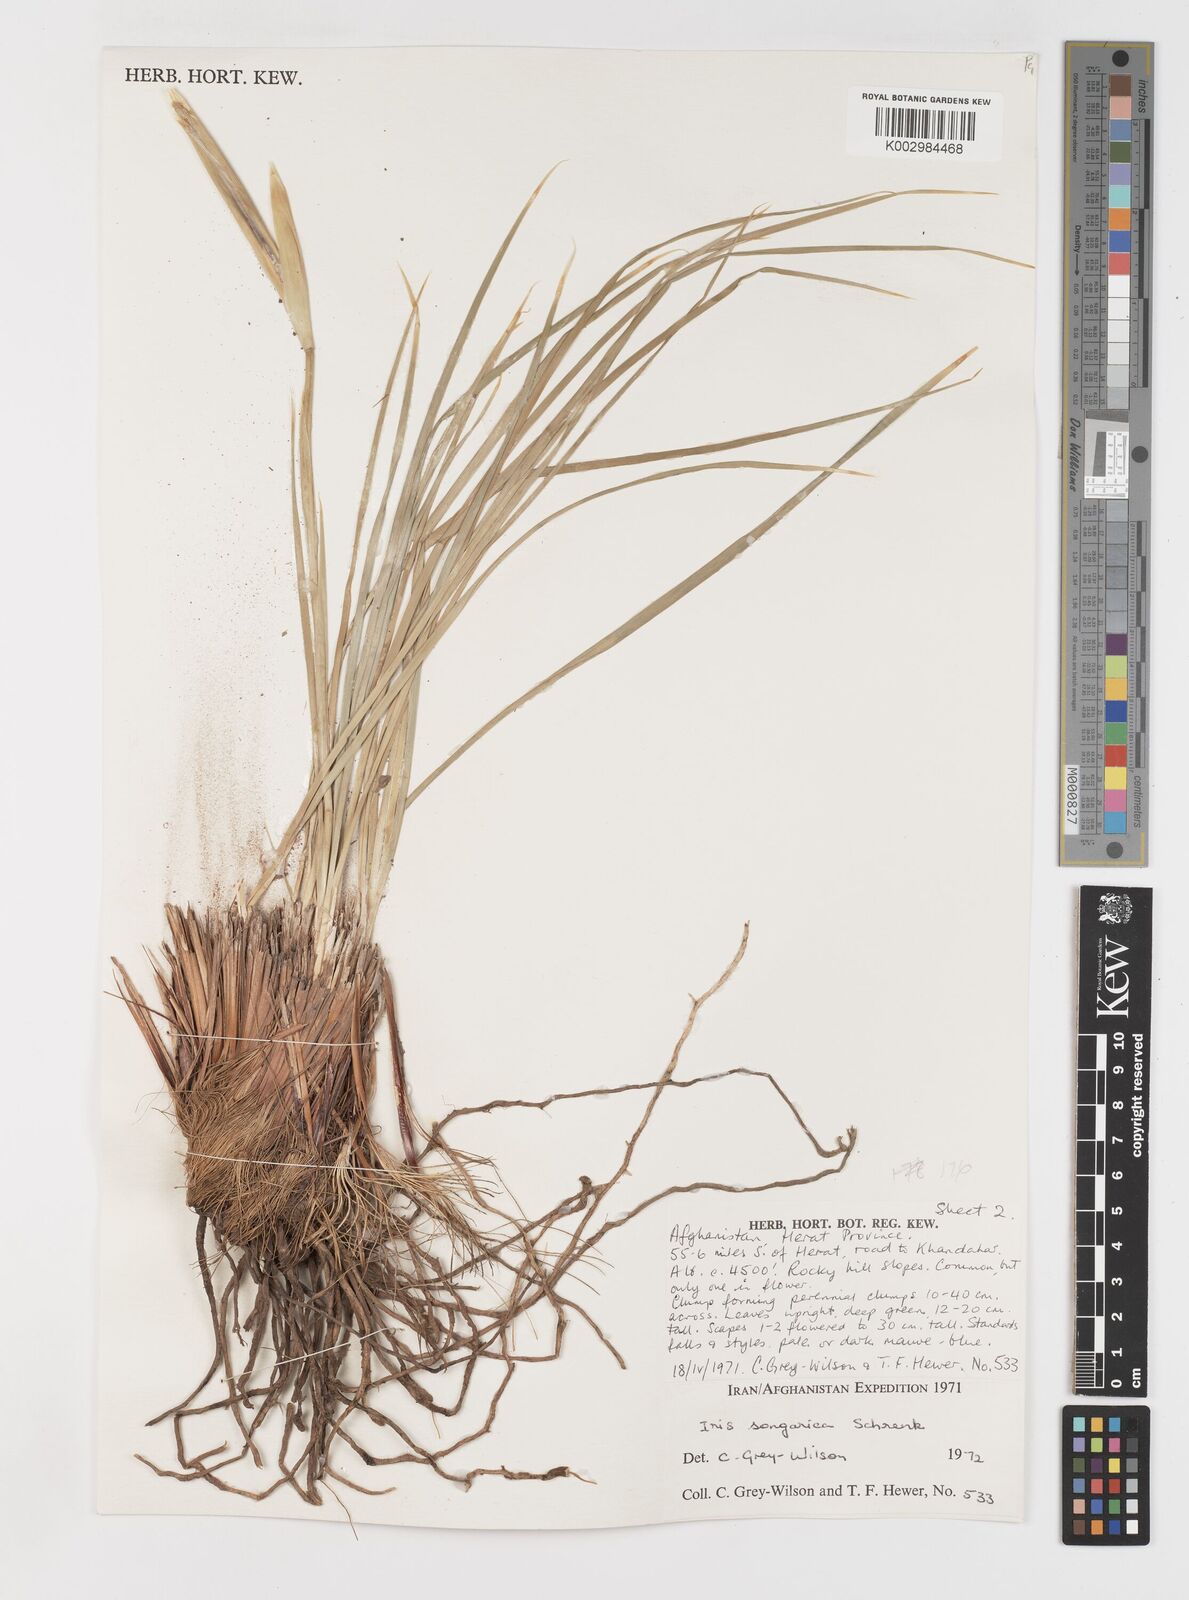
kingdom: Plantae
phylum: Tracheophyta
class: Liliopsida
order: Asparagales
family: Iridaceae
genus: Iris
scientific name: Iris songarica
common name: Songar iris
